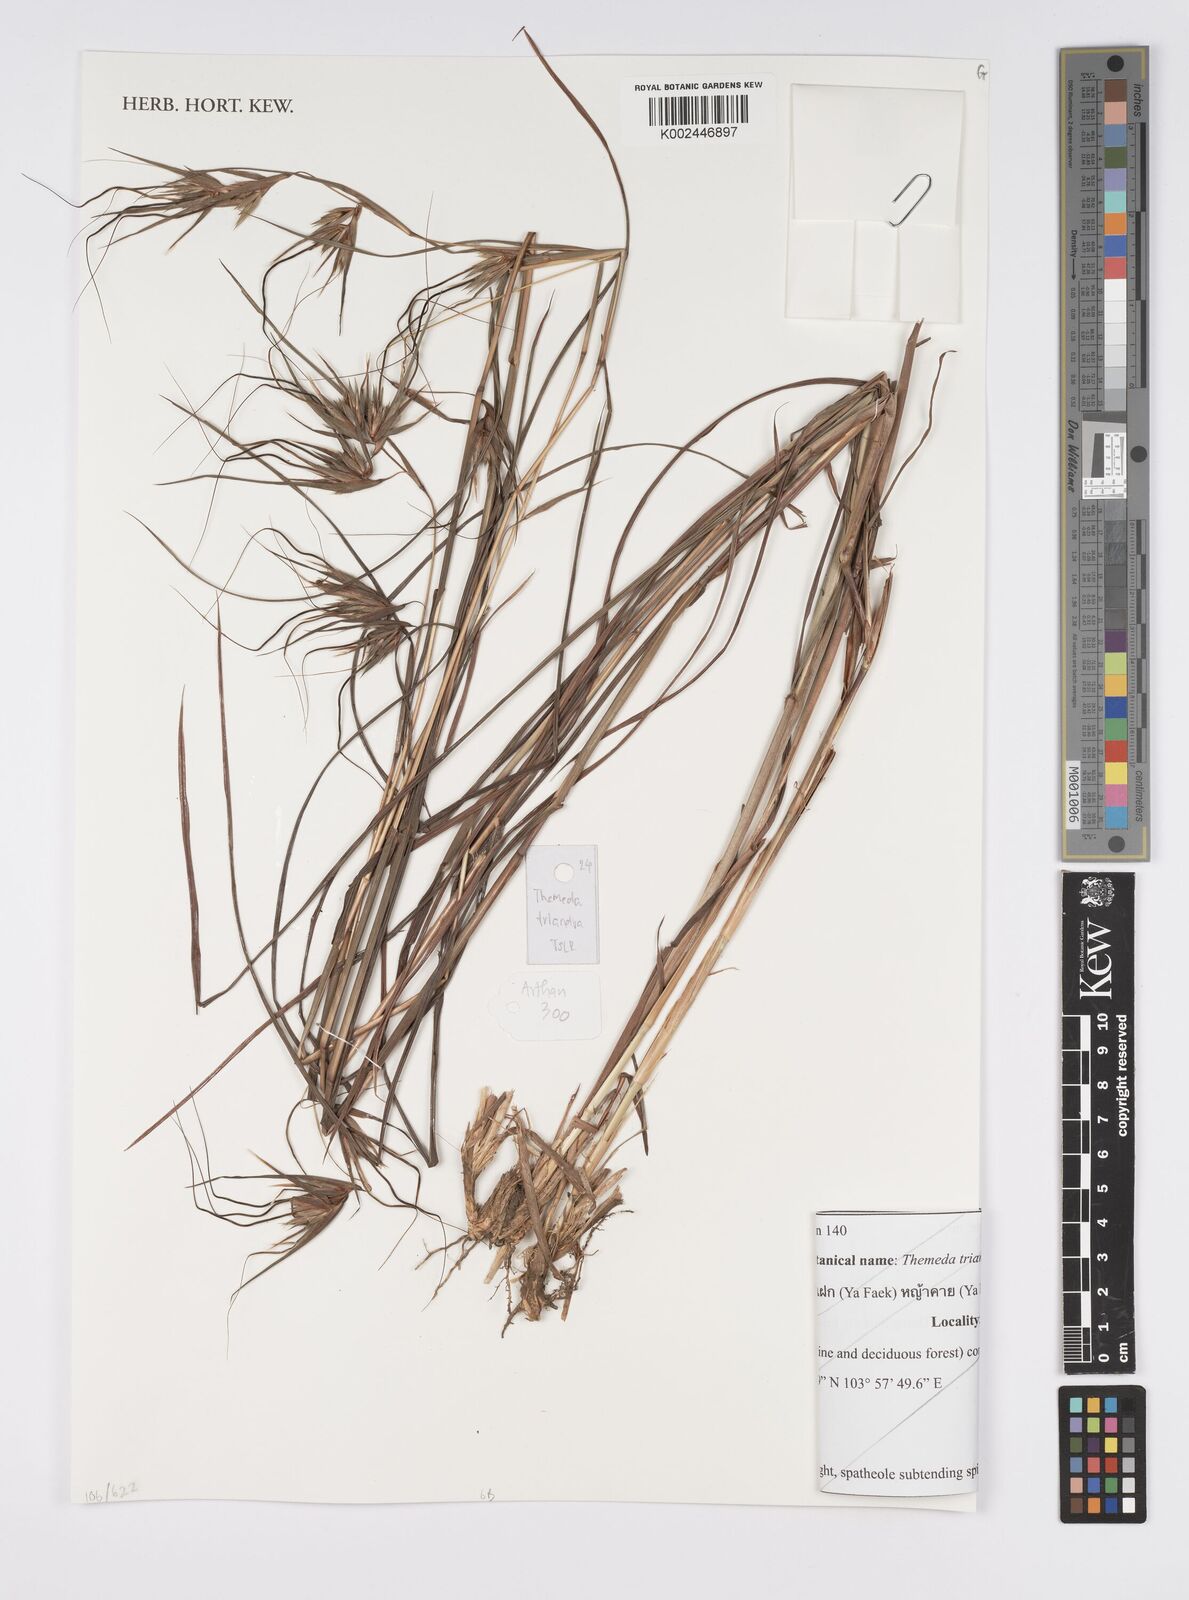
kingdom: Plantae
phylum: Tracheophyta
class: Liliopsida
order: Poales
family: Poaceae
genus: Themeda
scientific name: Themeda triandra
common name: Kangaroo grass
